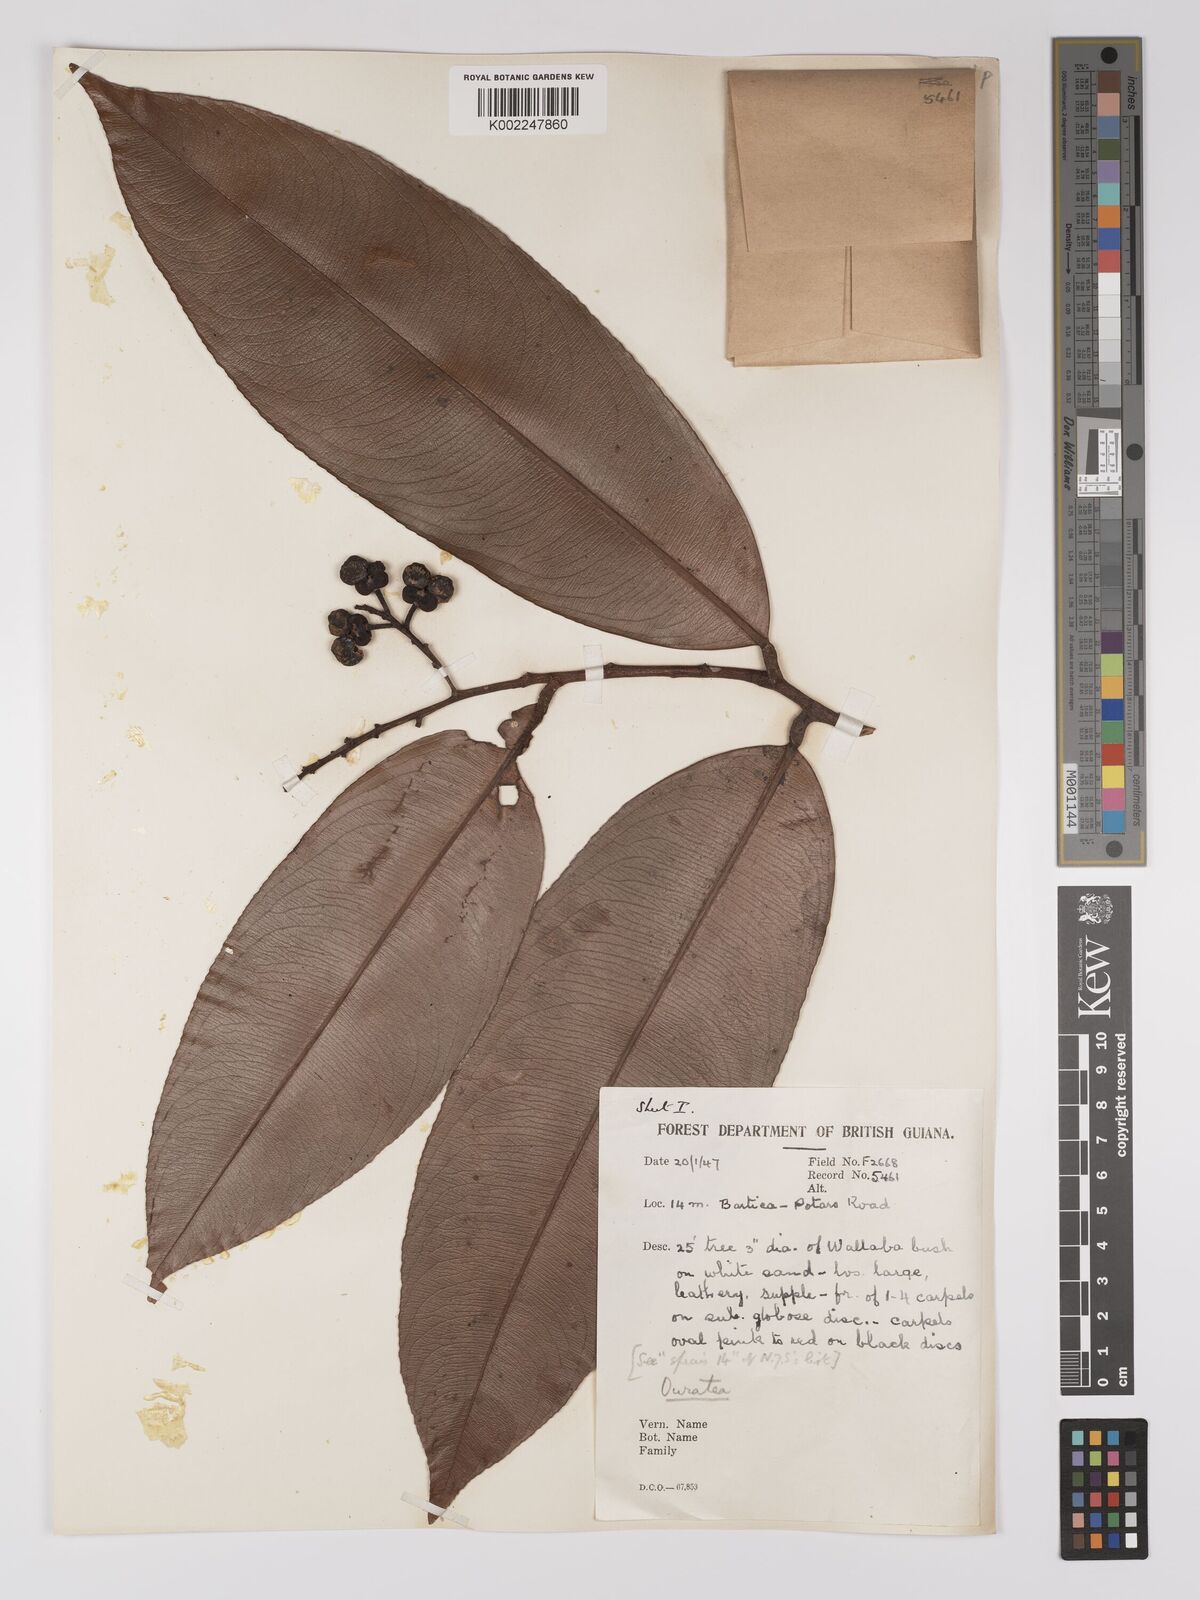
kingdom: Plantae
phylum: Tracheophyta
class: Magnoliopsida
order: Malpighiales
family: Ochnaceae
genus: Ouratea
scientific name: Ouratea
